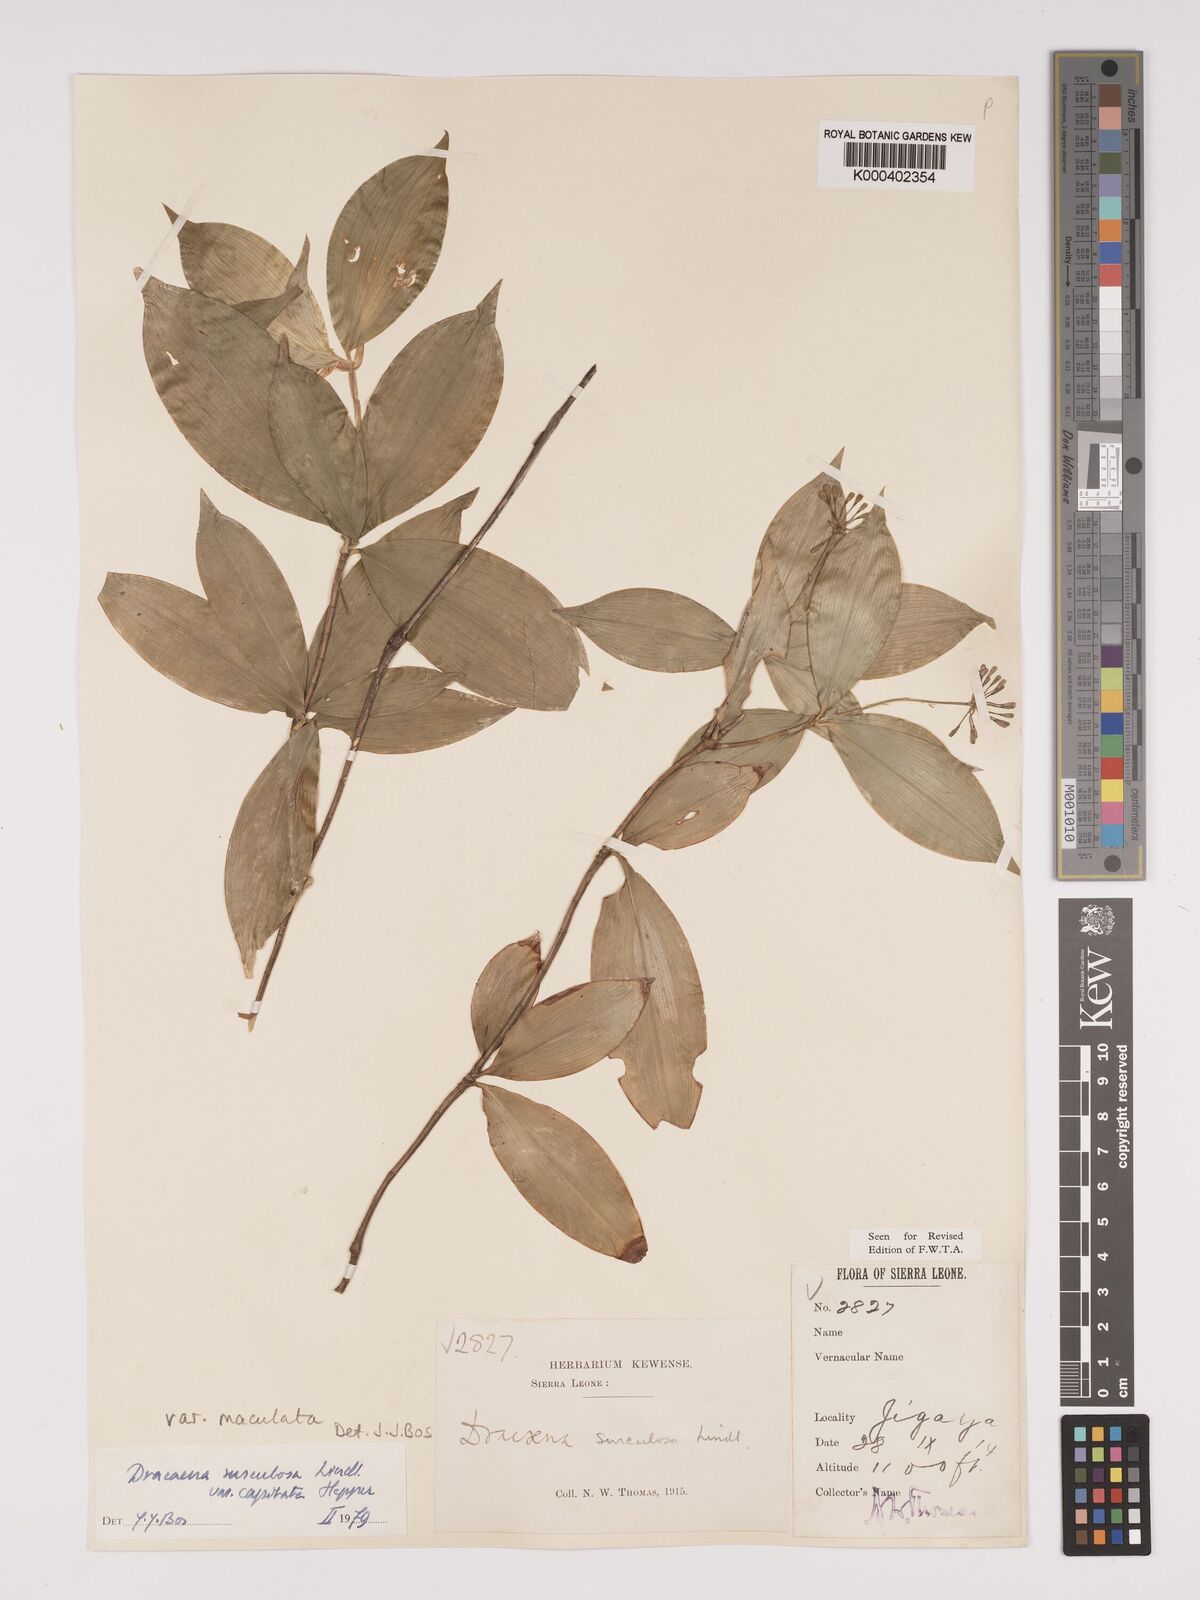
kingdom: Plantae
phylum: Tracheophyta
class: Liliopsida
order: Asparagales
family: Asparagaceae
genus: Dracaena
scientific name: Dracaena surculosa
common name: Spotted dracaena
